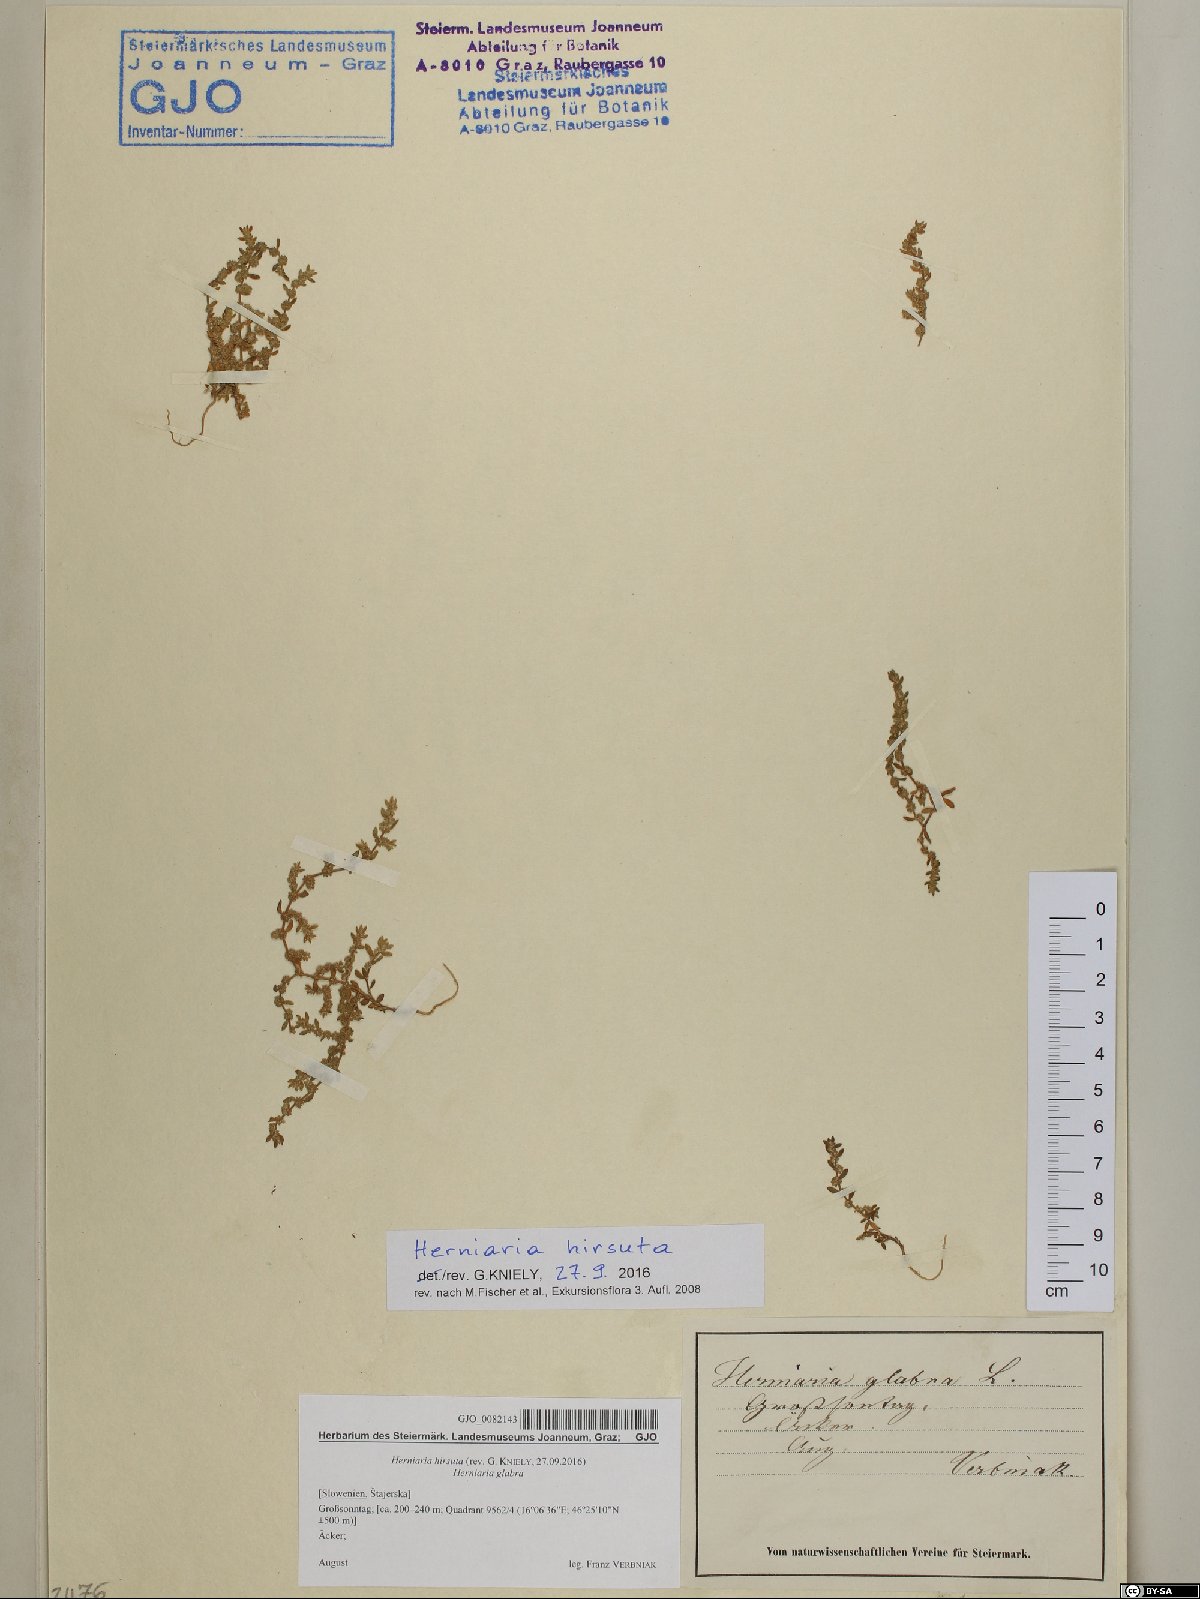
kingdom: Plantae
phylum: Tracheophyta
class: Magnoliopsida
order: Caryophyllales
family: Caryophyllaceae
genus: Herniaria
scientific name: Herniaria hirsuta
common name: Hairy rupturewort
